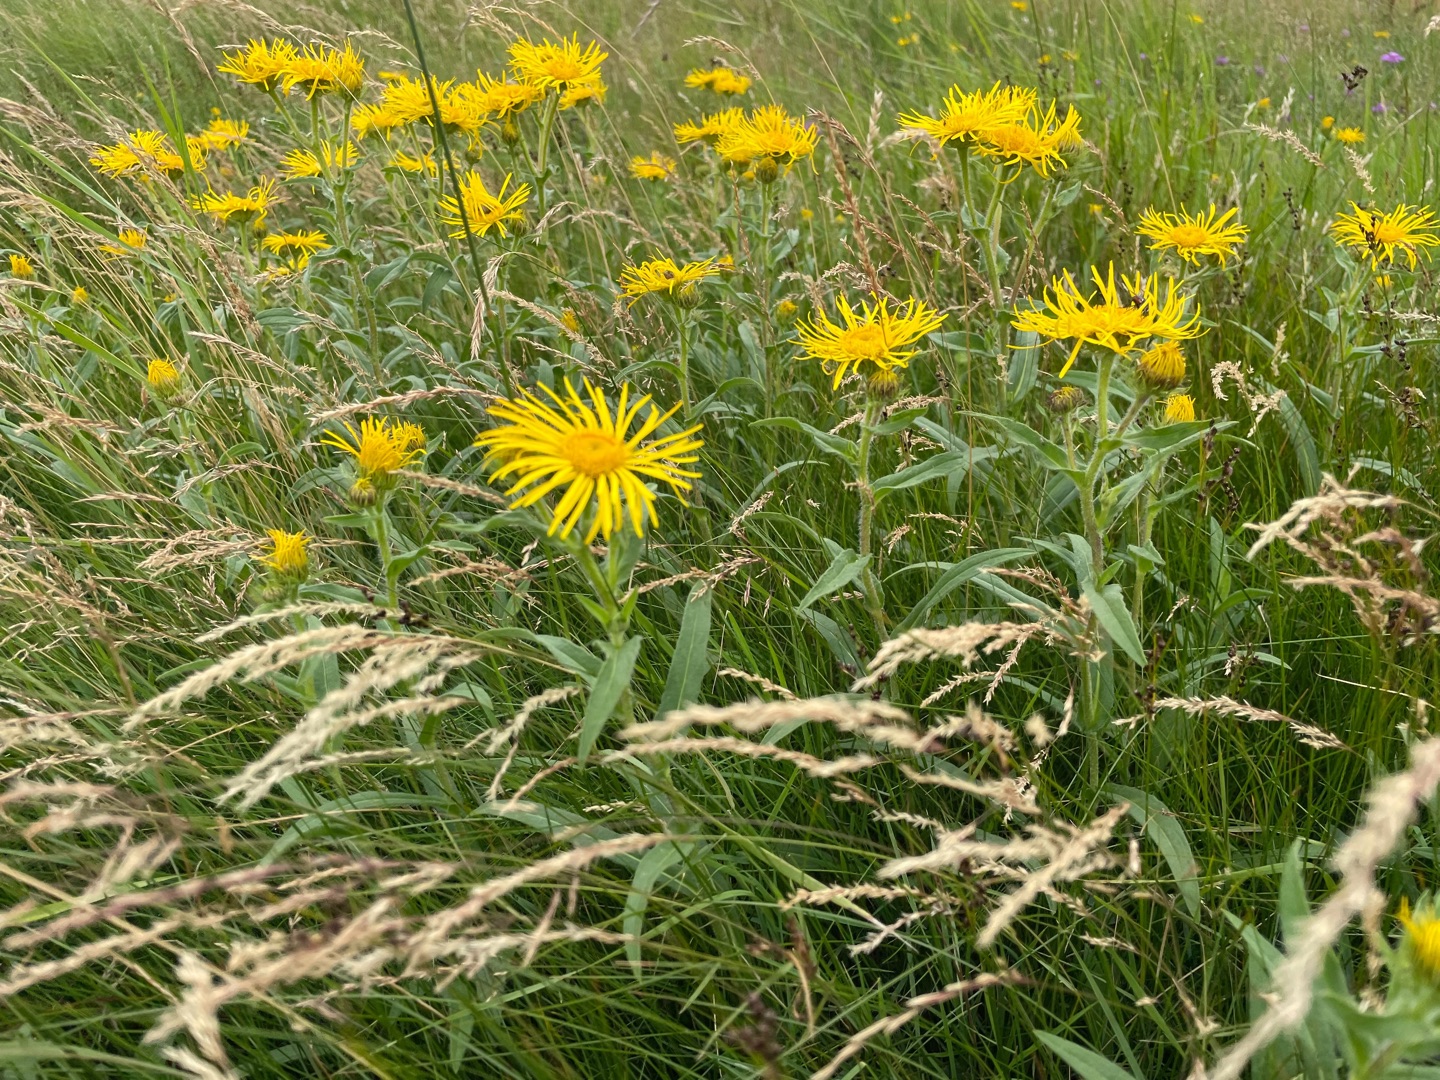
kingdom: Plantae
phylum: Tracheophyta
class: Magnoliopsida
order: Asterales
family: Asteraceae
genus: Pentanema
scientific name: Pentanema britannicum
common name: Soløje-alant
